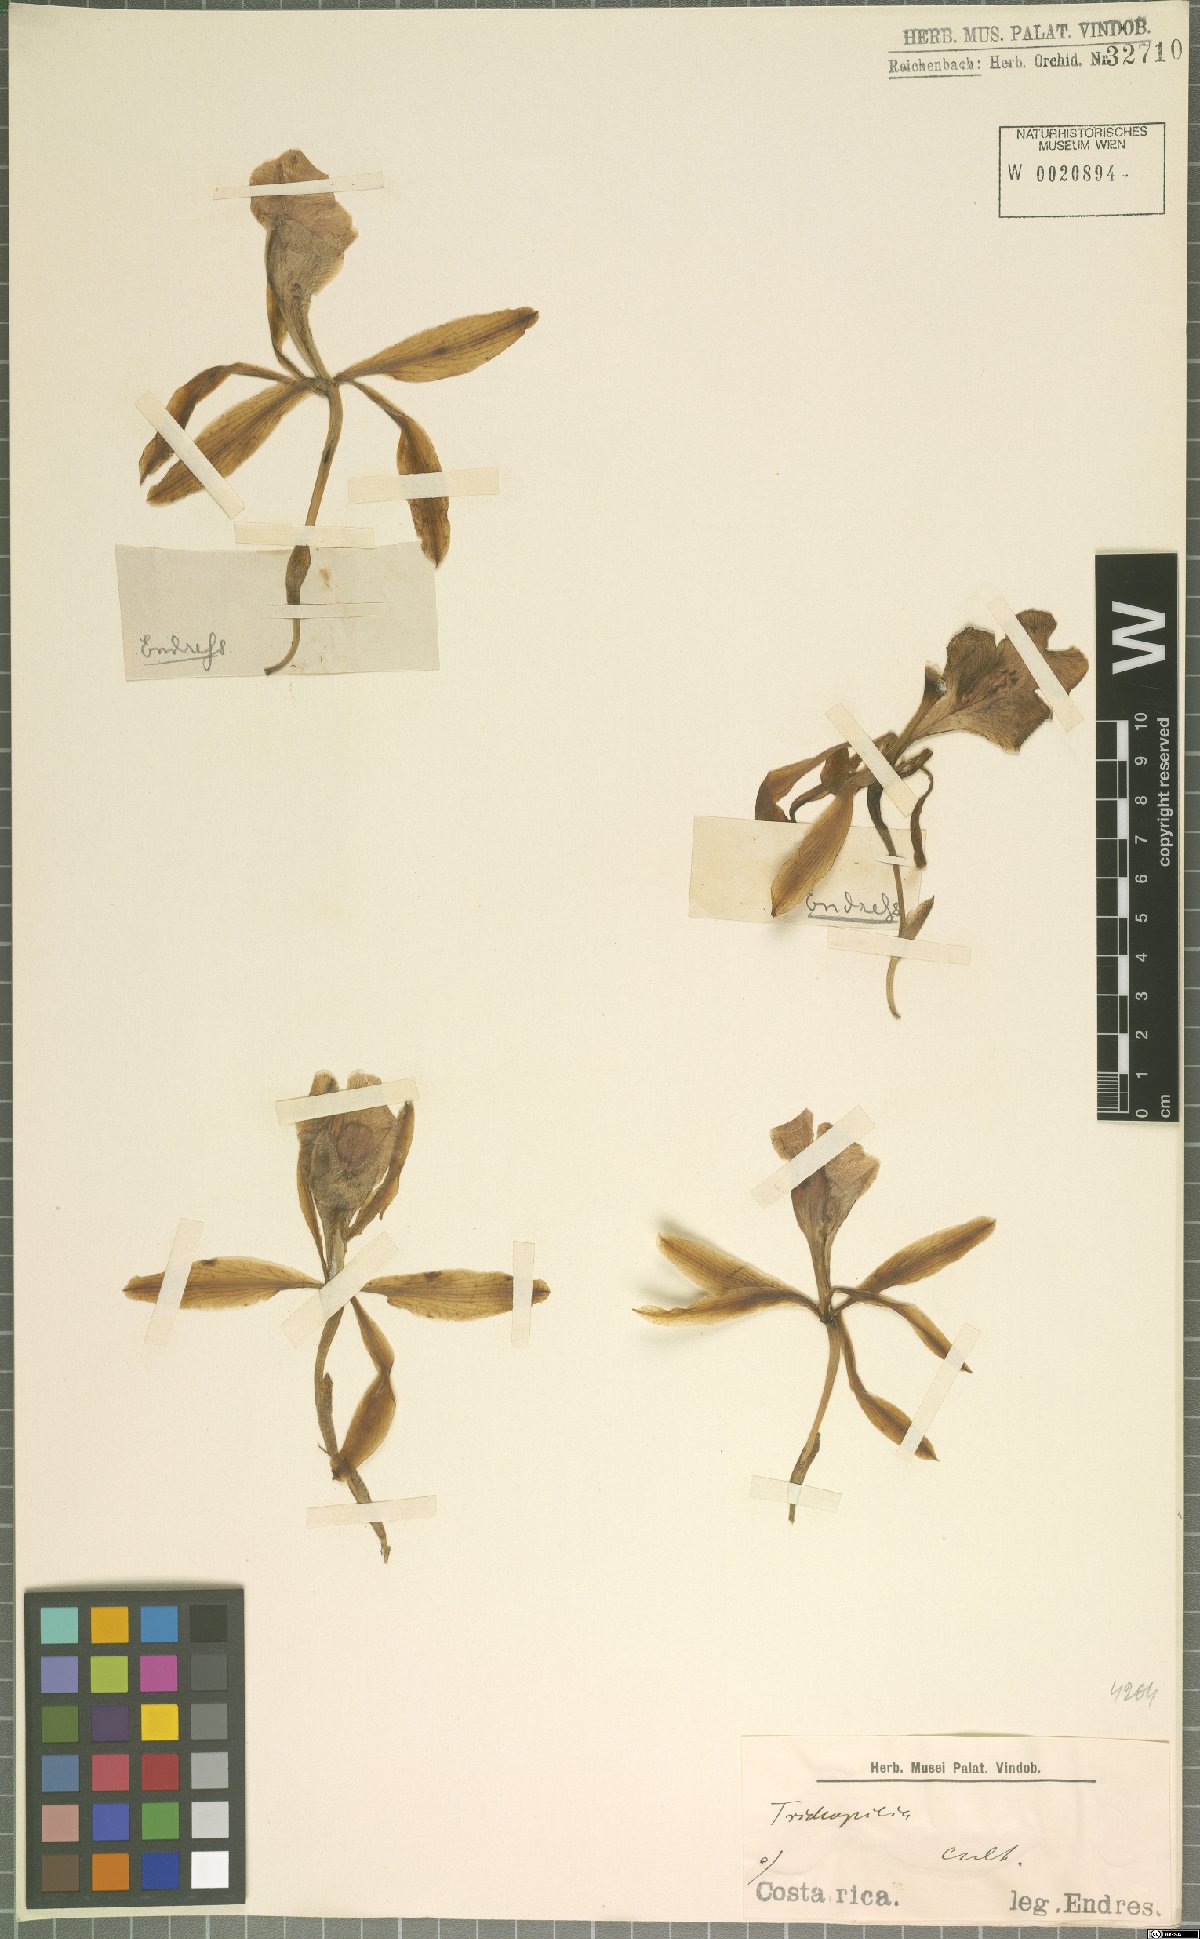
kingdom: Plantae
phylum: Tracheophyta
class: Liliopsida
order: Asparagales
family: Orchidaceae
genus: Trichopilia
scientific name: Trichopilia
